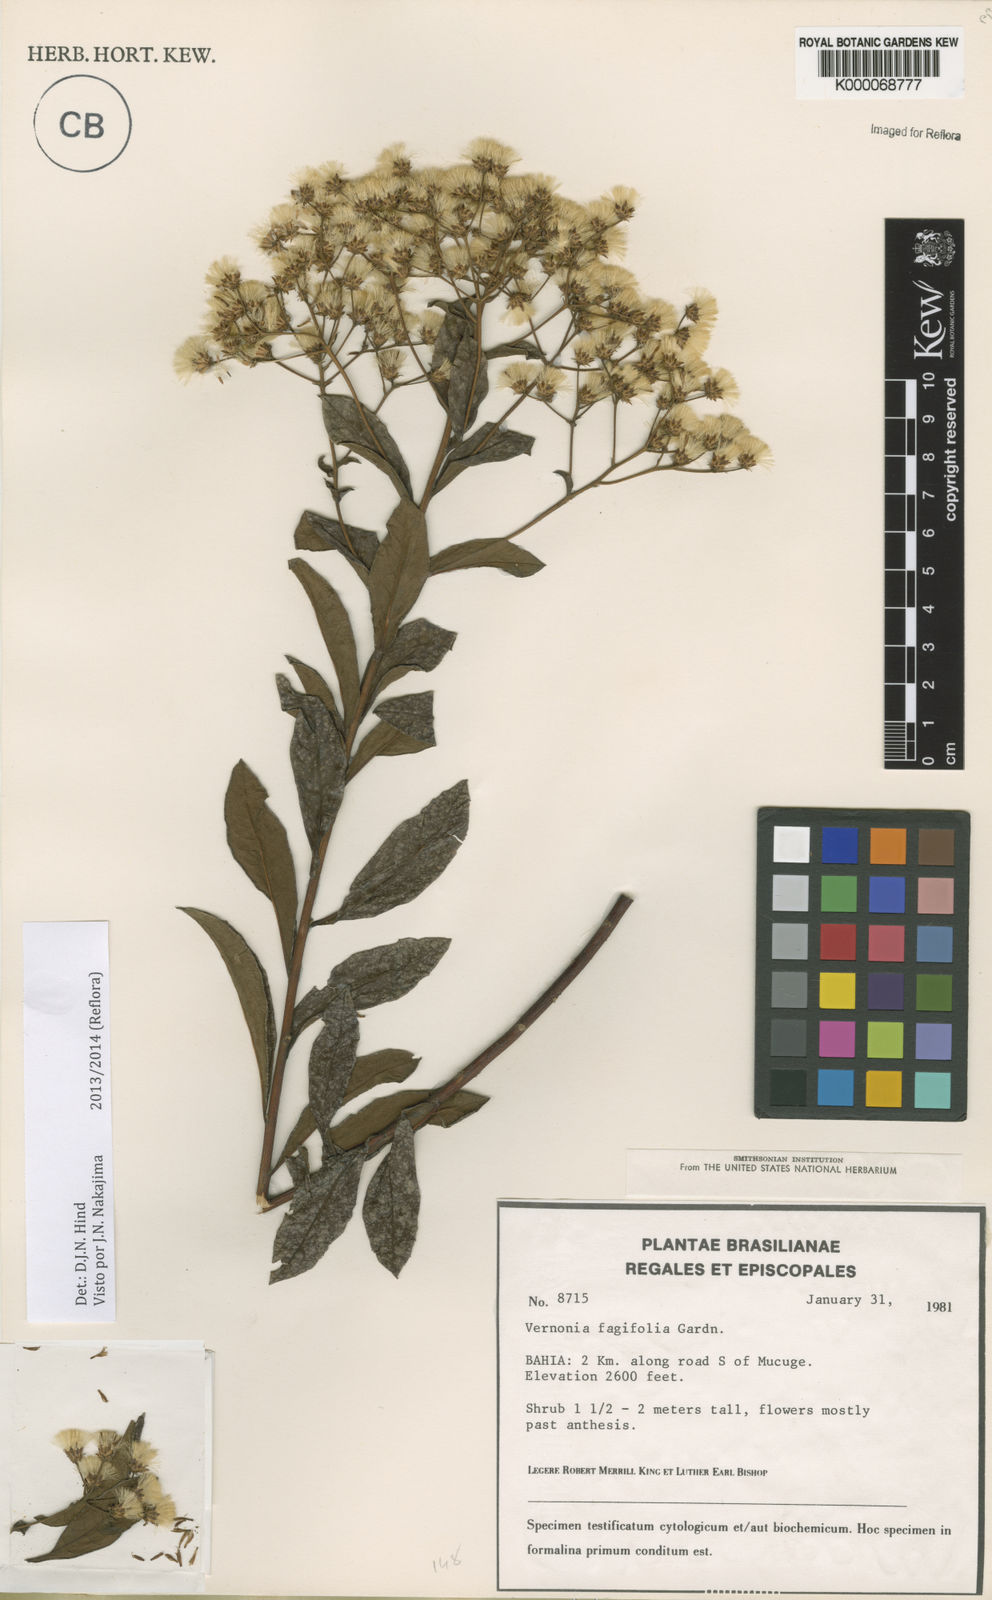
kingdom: Plantae
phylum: Tracheophyta
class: Magnoliopsida
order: Asterales
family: Asteraceae
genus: Vernonanthura
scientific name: Vernonanthura fagifolia
